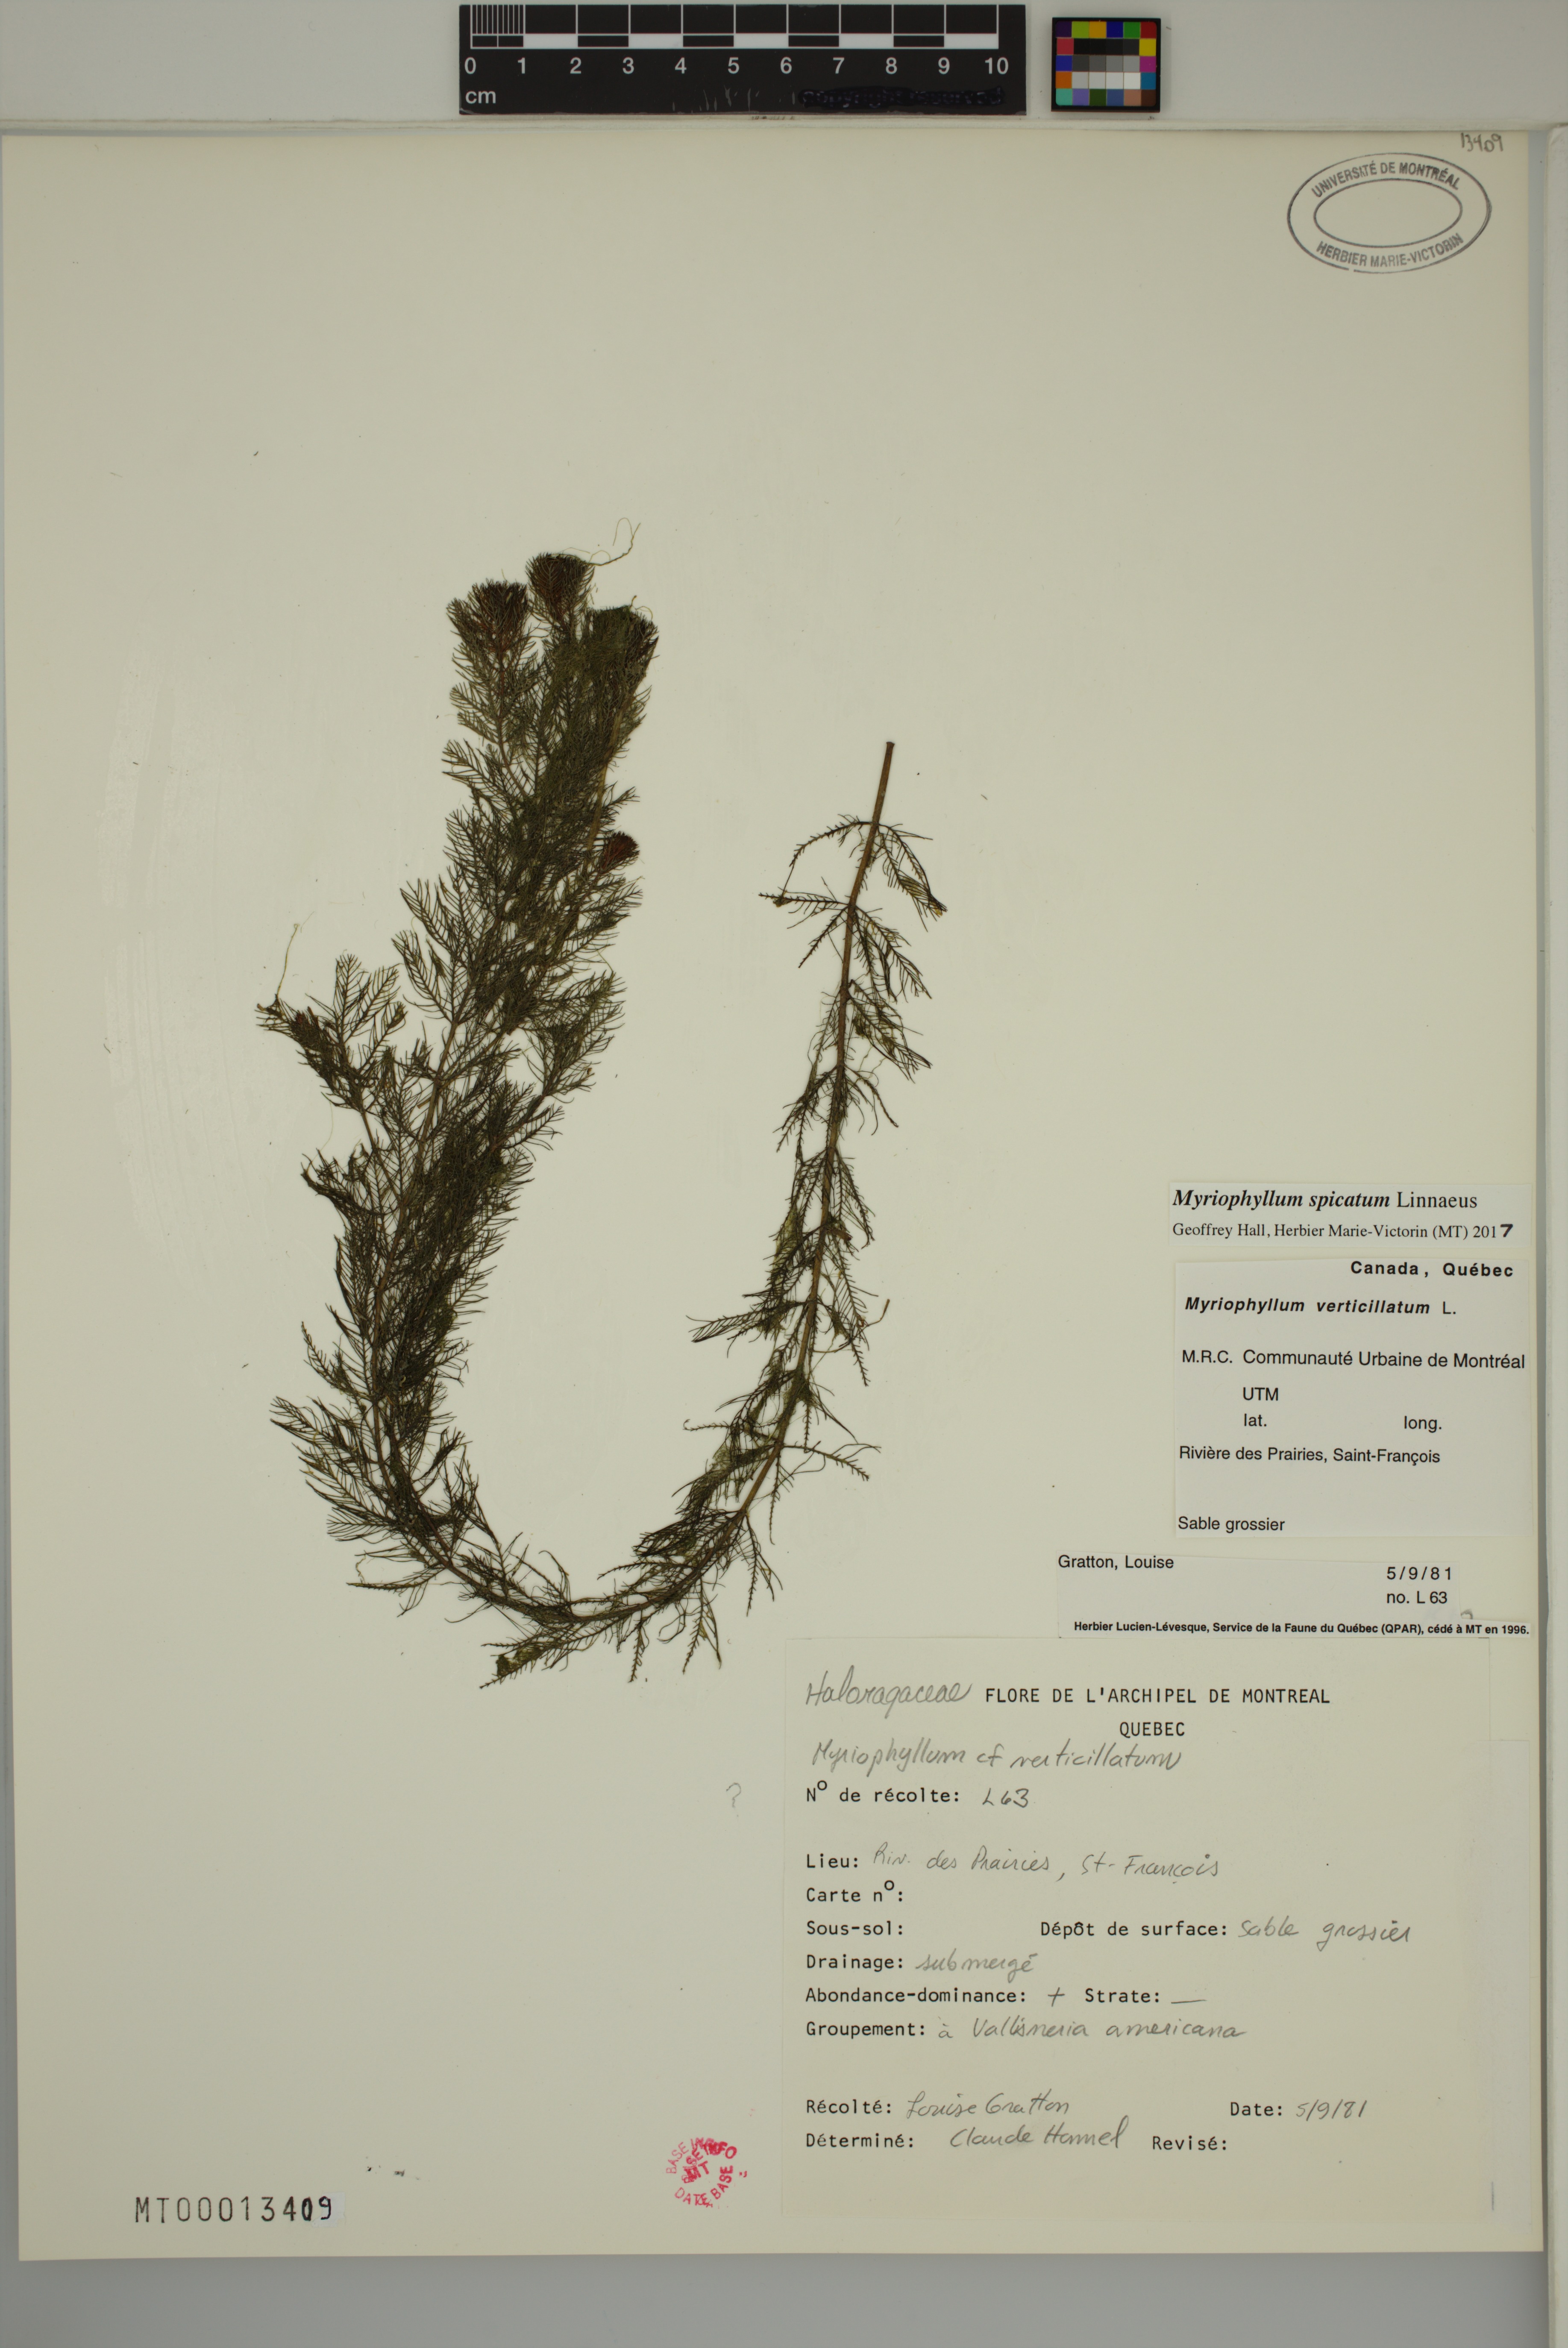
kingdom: Plantae
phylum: Tracheophyta
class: Magnoliopsida
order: Saxifragales
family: Haloragaceae
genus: Myriophyllum
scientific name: Myriophyllum spicatum
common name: Spiked water-milfoil
